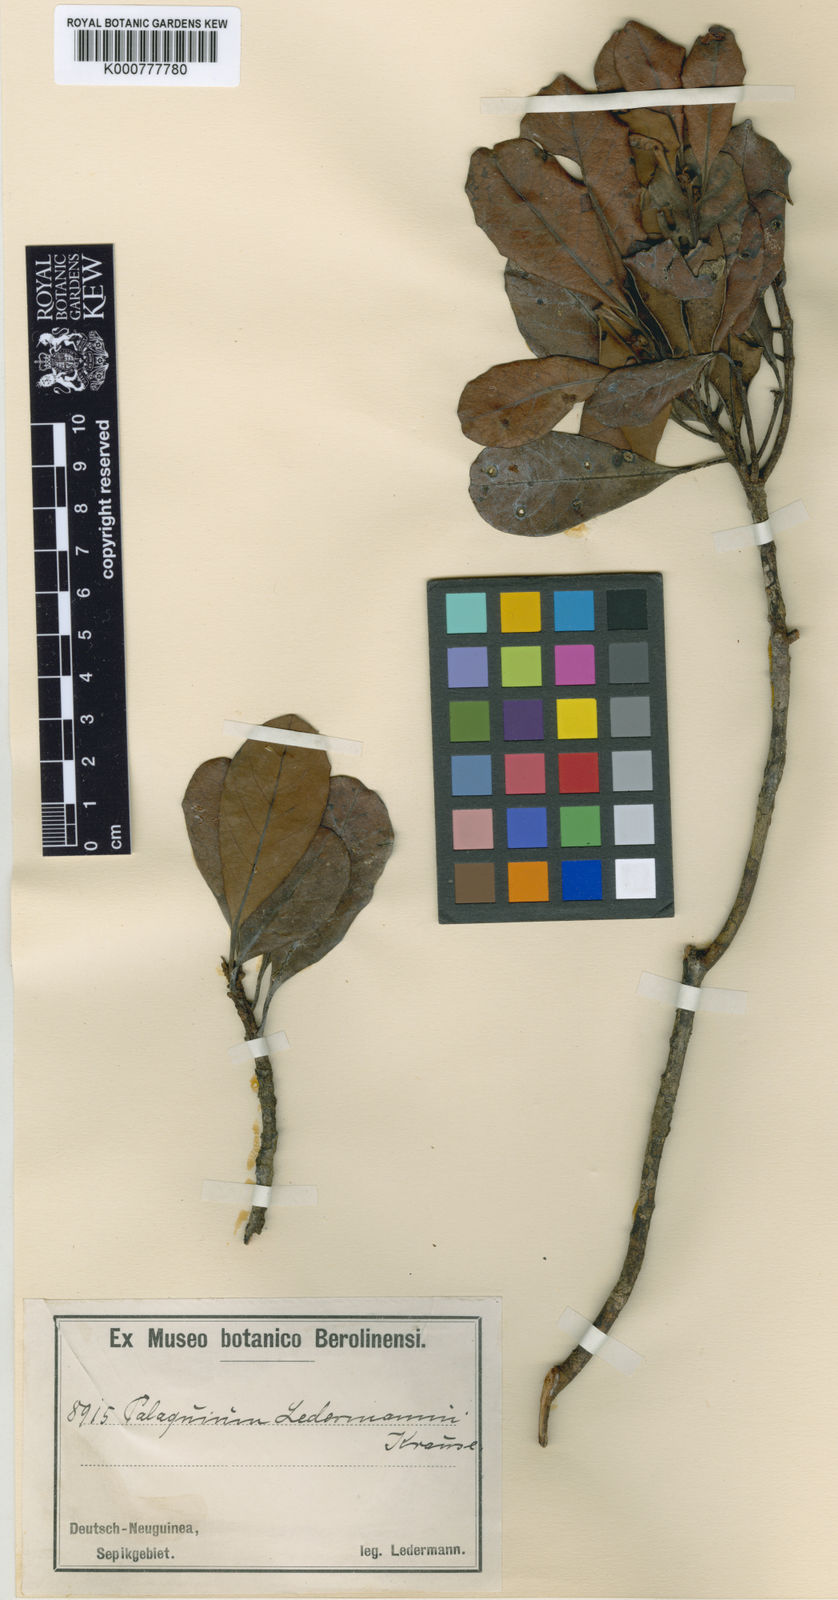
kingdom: Plantae
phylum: Tracheophyta
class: Magnoliopsida
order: Ericales
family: Sapotaceae
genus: Palaquium
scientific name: Palaquium ridleyi
